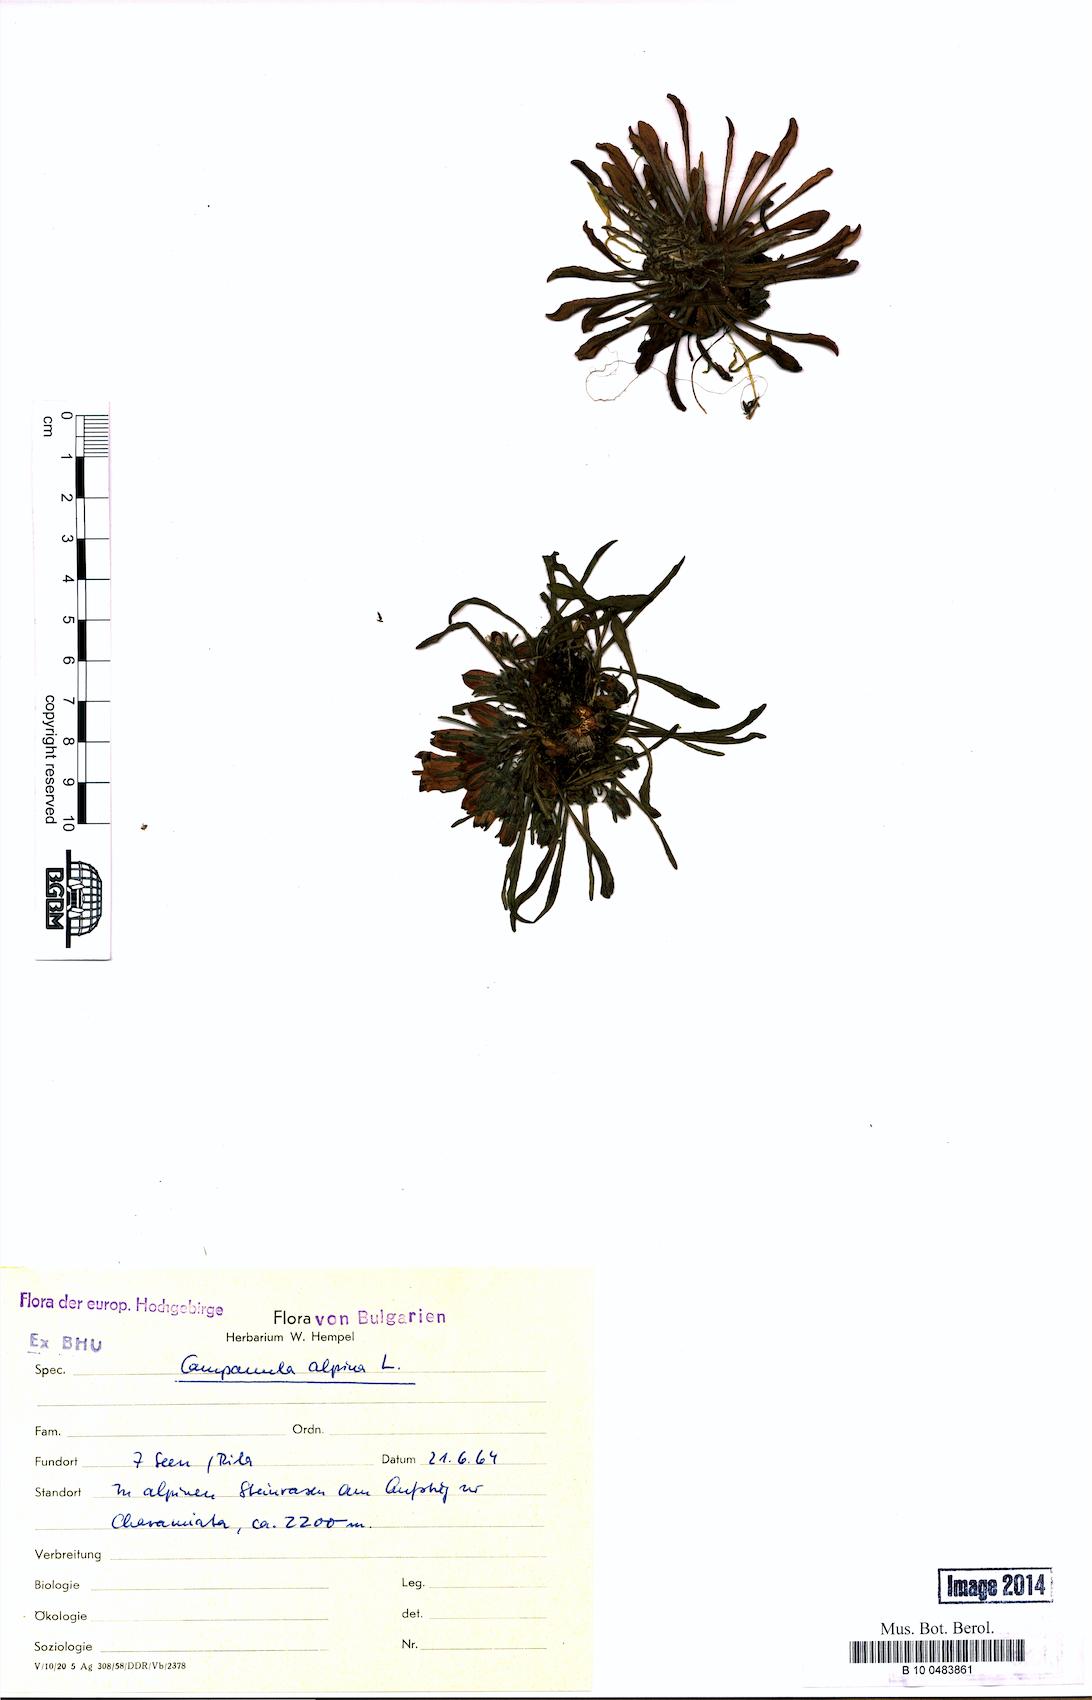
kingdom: Plantae
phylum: Tracheophyta
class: Magnoliopsida
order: Asterales
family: Campanulaceae
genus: Campanula
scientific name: Campanula alpina
